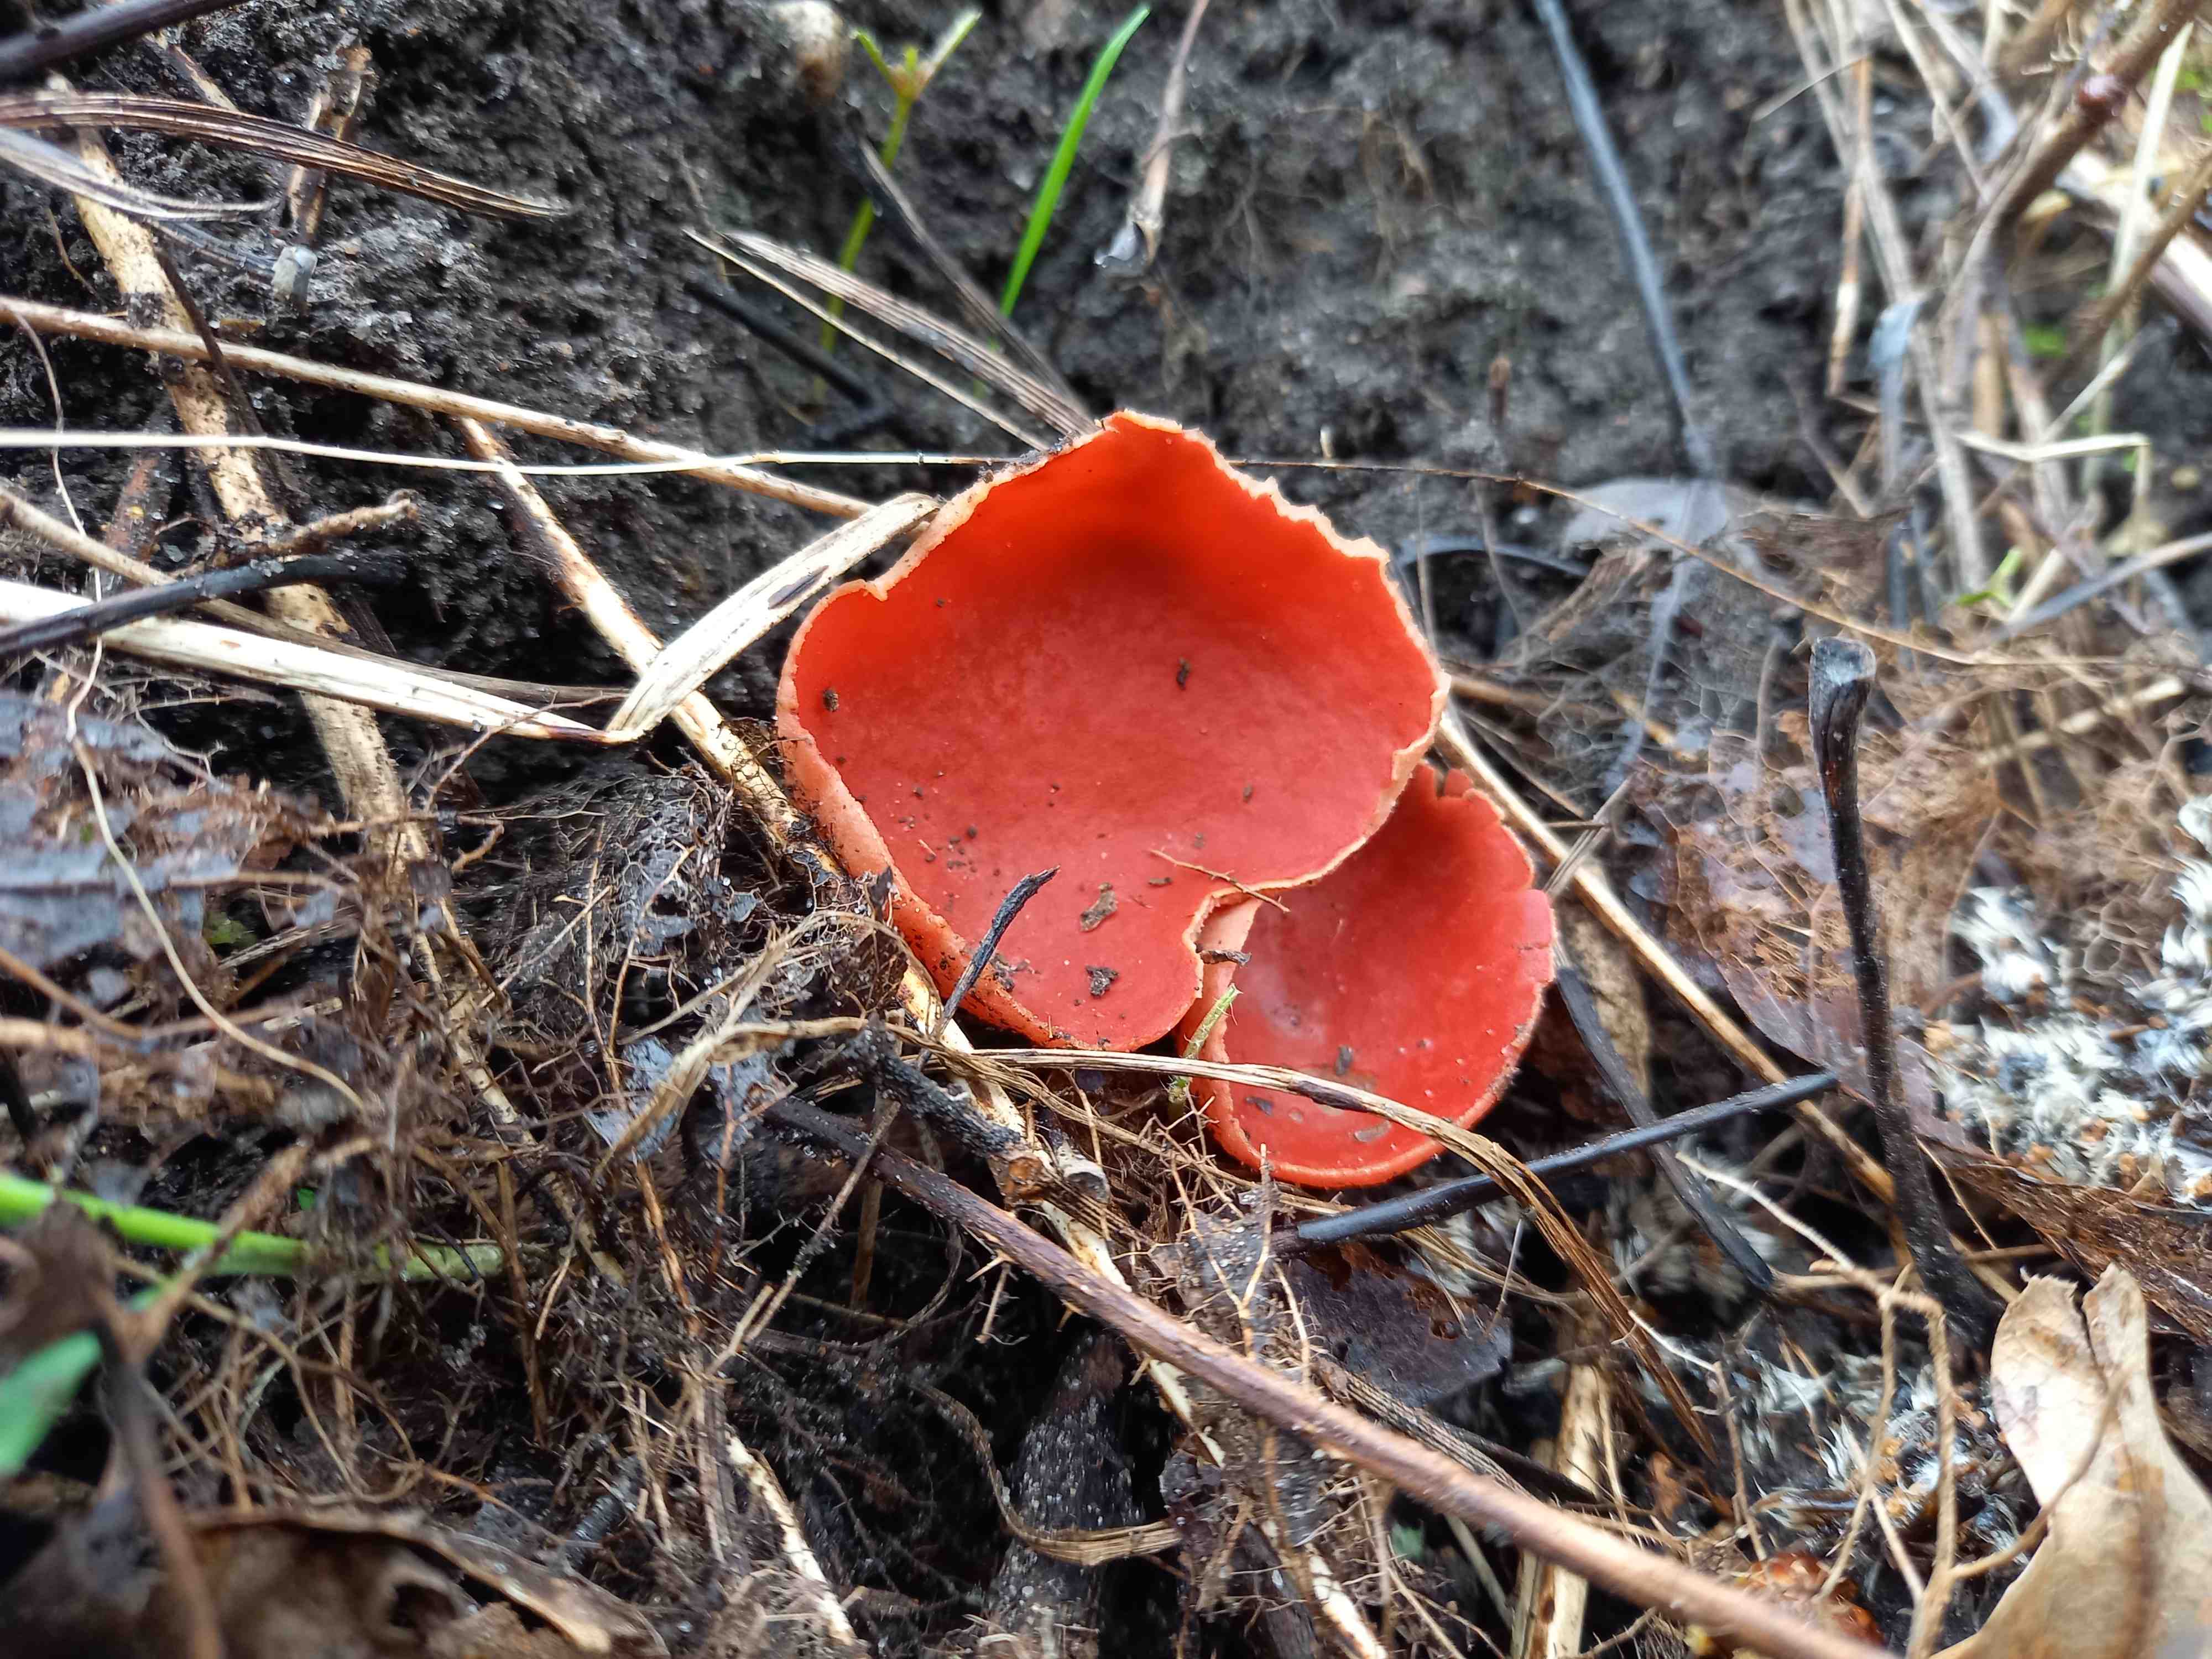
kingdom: Fungi
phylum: Ascomycota
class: Pezizomycetes
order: Pezizales
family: Sarcoscyphaceae
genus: Sarcoscypha
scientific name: Sarcoscypha austriaca
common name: krølhåret pragtbæger
